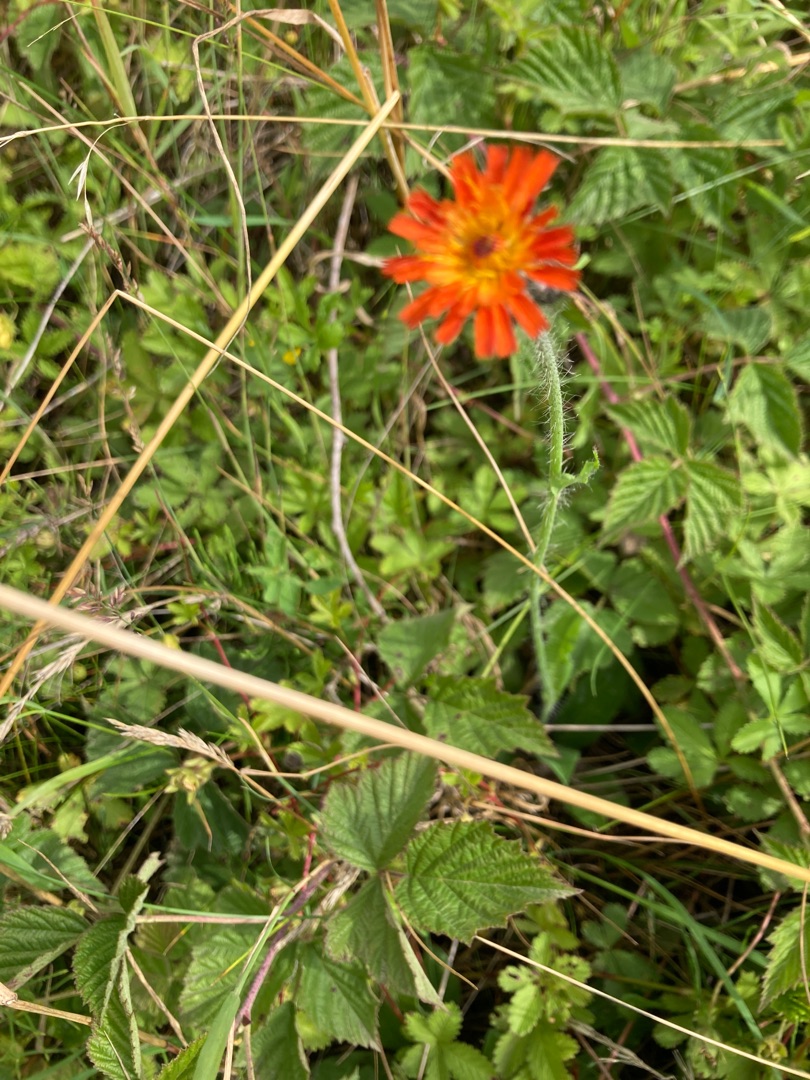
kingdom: Plantae
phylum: Tracheophyta
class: Magnoliopsida
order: Asterales
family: Asteraceae
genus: Pilosella
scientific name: Pilosella aurantiaca
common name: Pomerans-høgeurt
